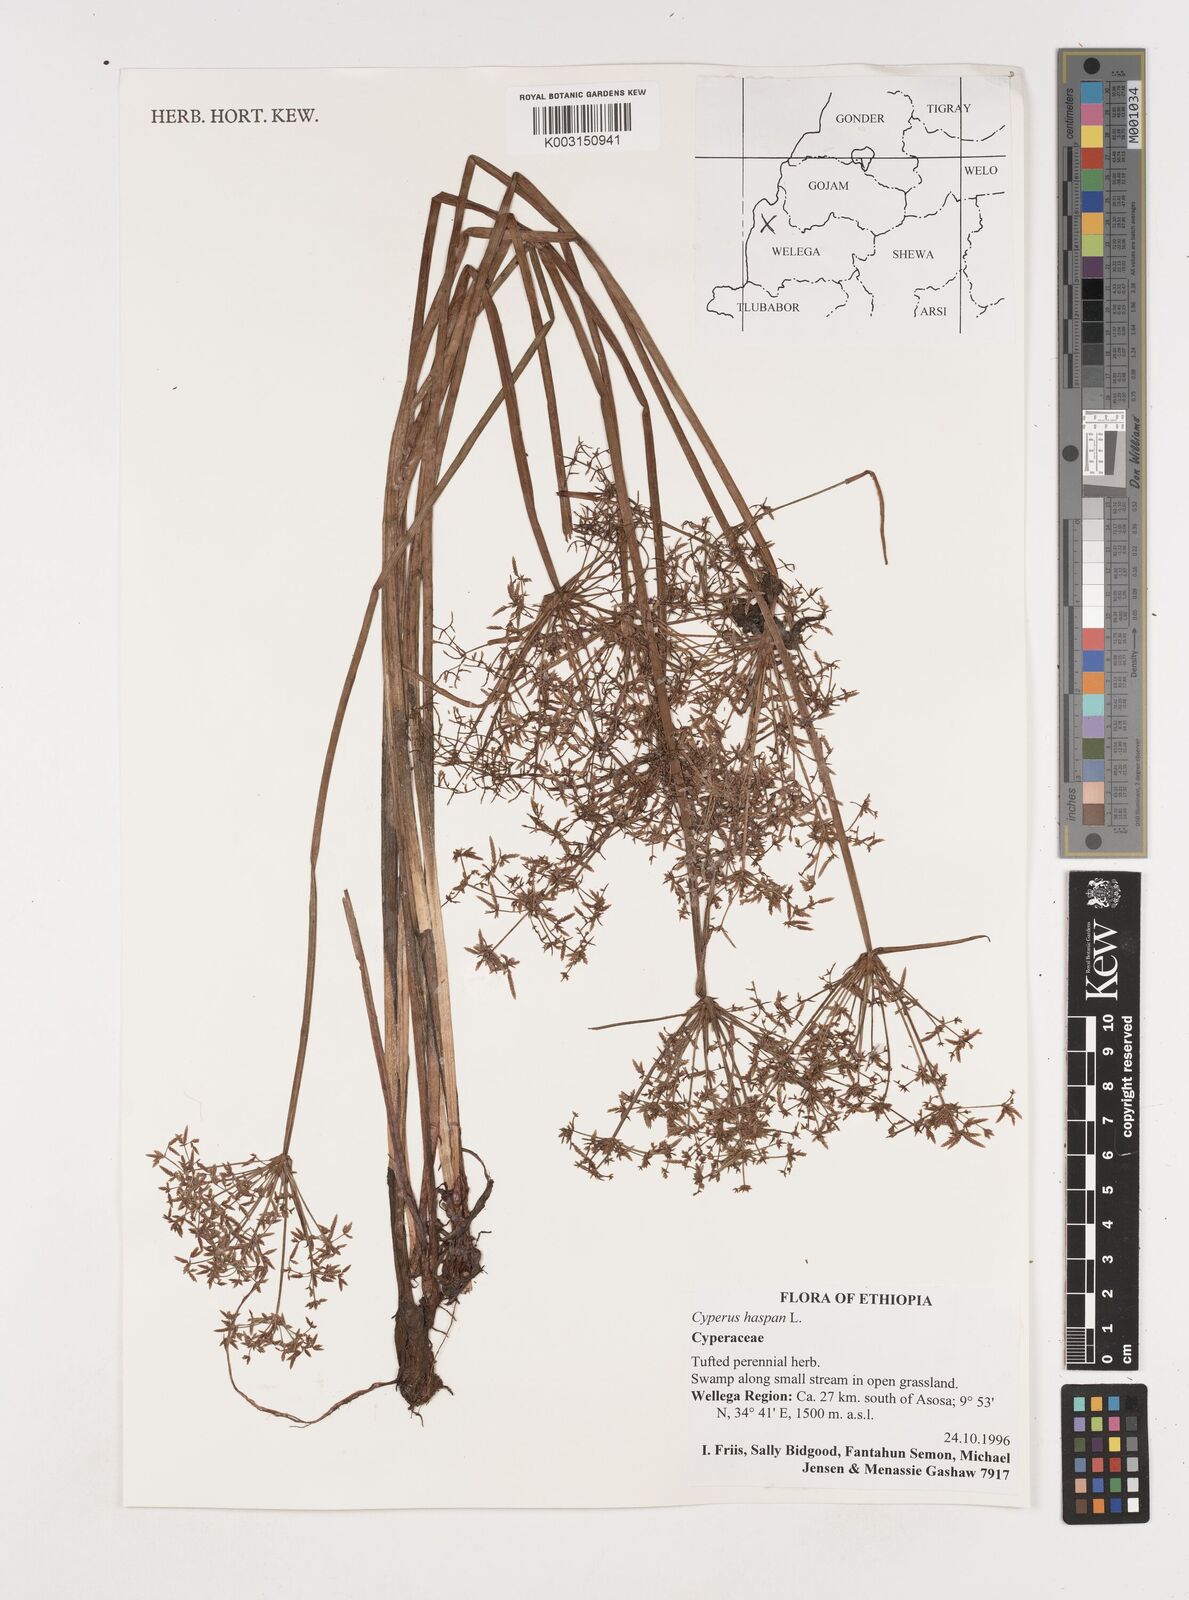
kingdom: Plantae
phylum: Tracheophyta
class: Liliopsida
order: Poales
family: Cyperaceae
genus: Cyperus
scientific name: Cyperus haspan
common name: Haspan flatsedge
